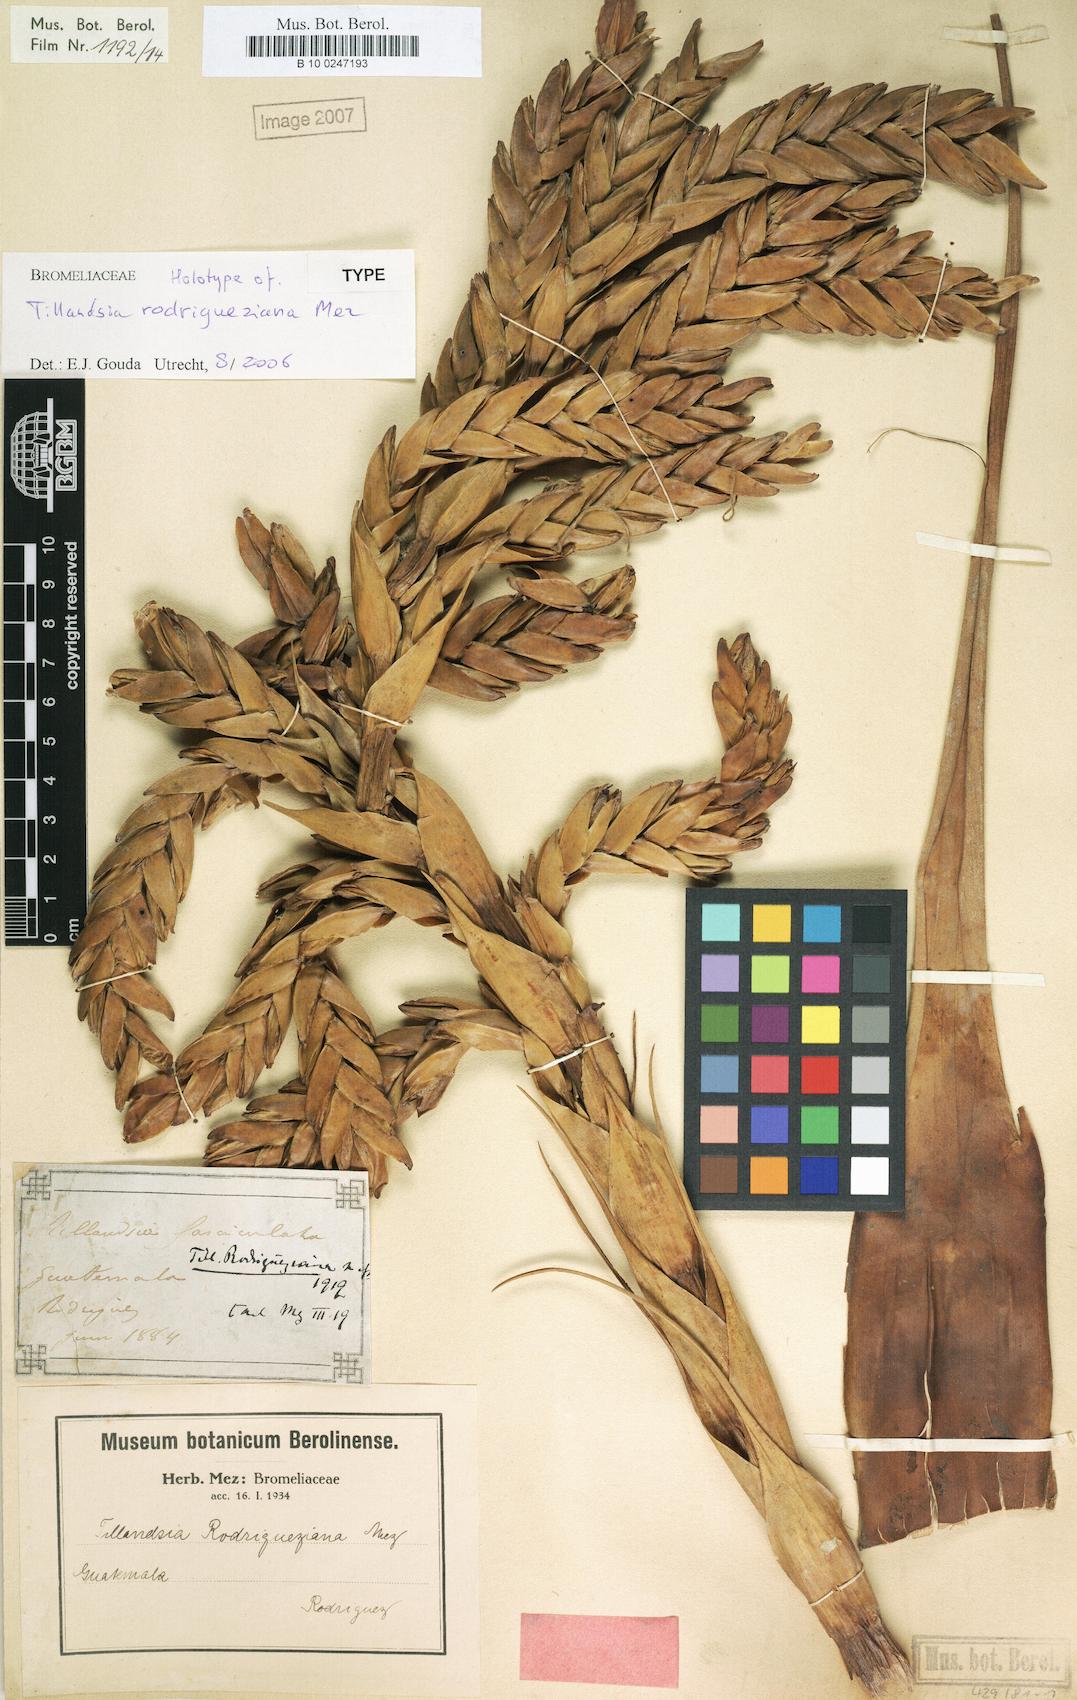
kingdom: Plantae
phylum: Tracheophyta
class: Liliopsida
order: Poales
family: Bromeliaceae
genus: Tillandsia
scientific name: Tillandsia rodrigueziana
